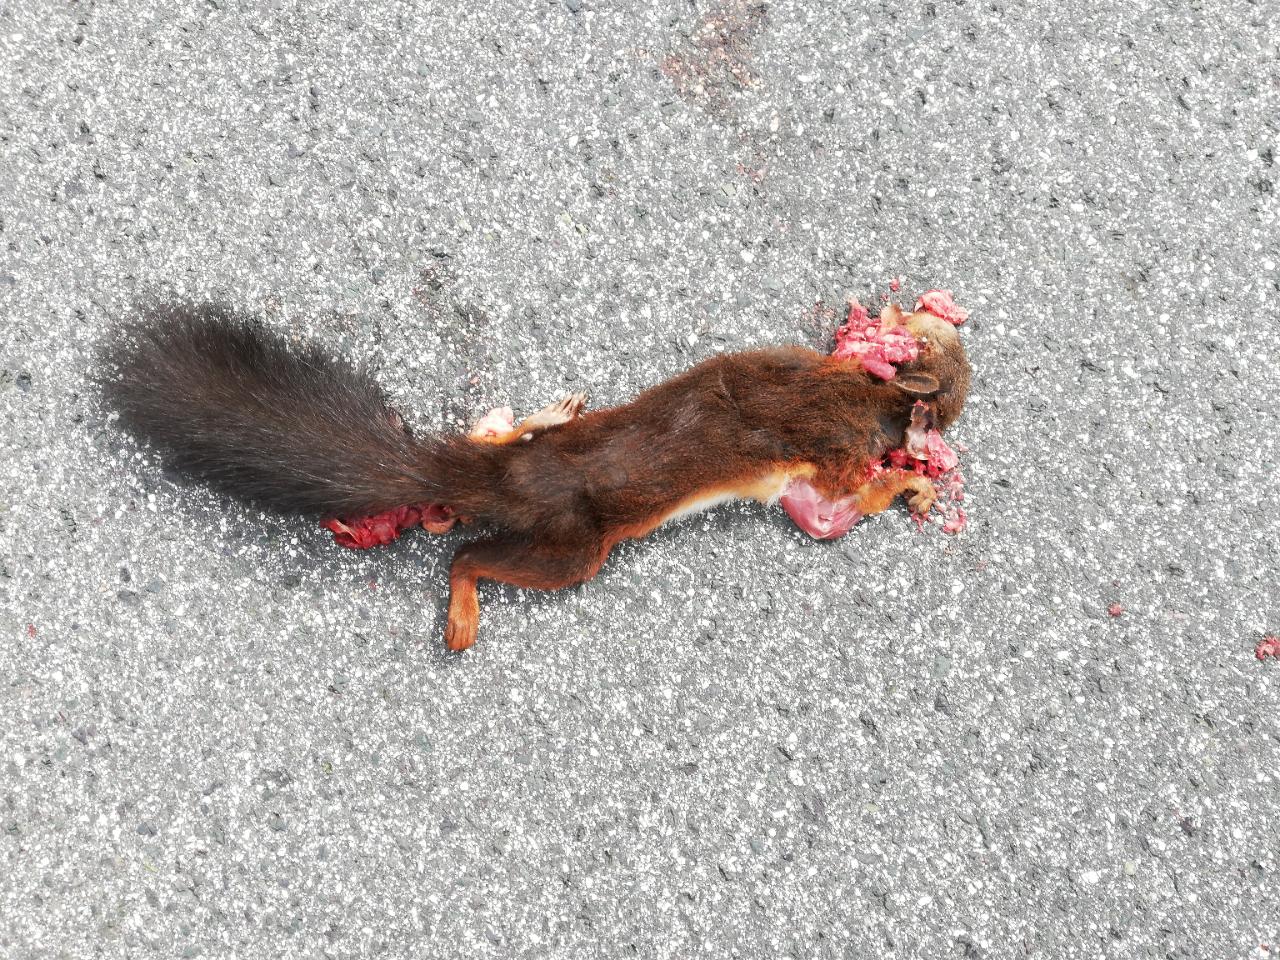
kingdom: Animalia
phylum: Chordata
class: Mammalia
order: Rodentia
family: Sciuridae
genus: Sciurus
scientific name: Sciurus vulgaris
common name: Eurasian red squirrel
